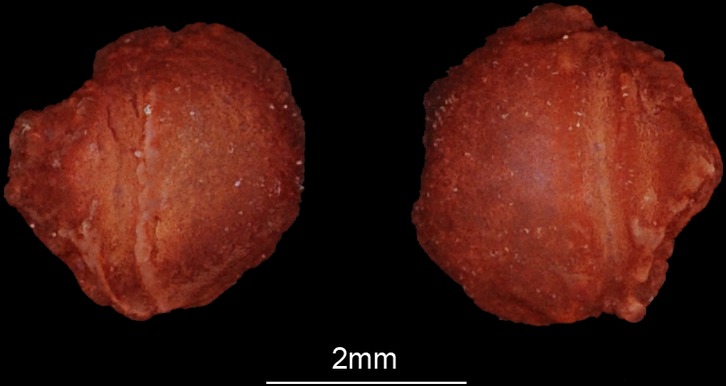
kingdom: Animalia
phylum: Chordata
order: Atheriniformes
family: Atherinidae
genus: Atherinomorus
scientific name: Atherinomorus lacunosus
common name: Hardyhead silverside
